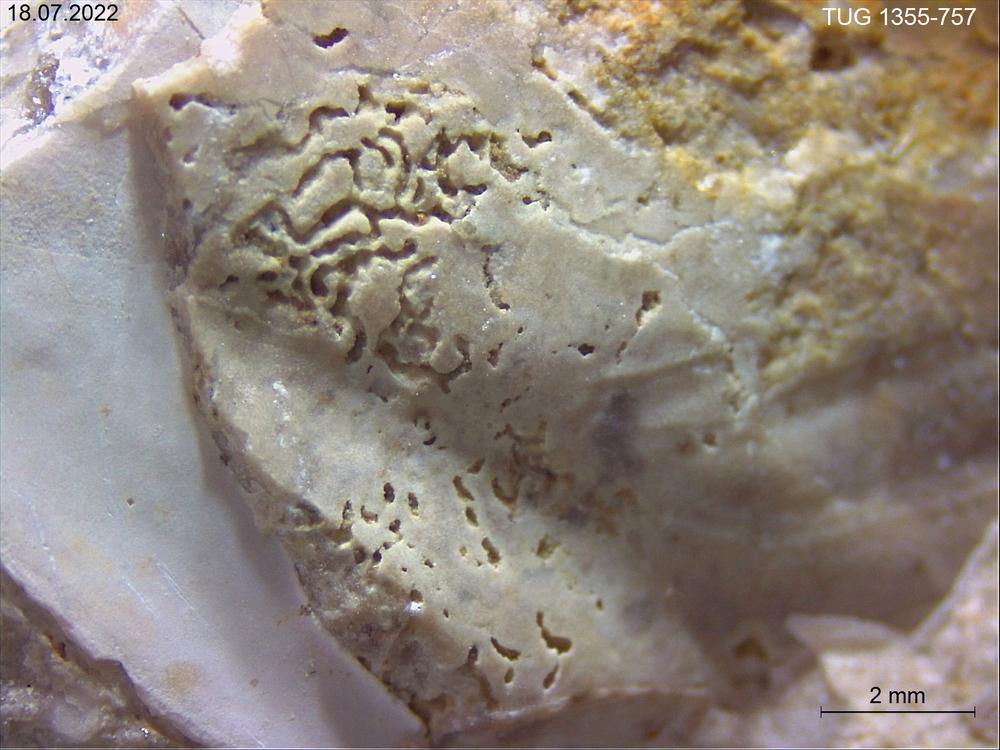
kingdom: Animalia
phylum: Arthropoda
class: Trilobita
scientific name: Trilobita
